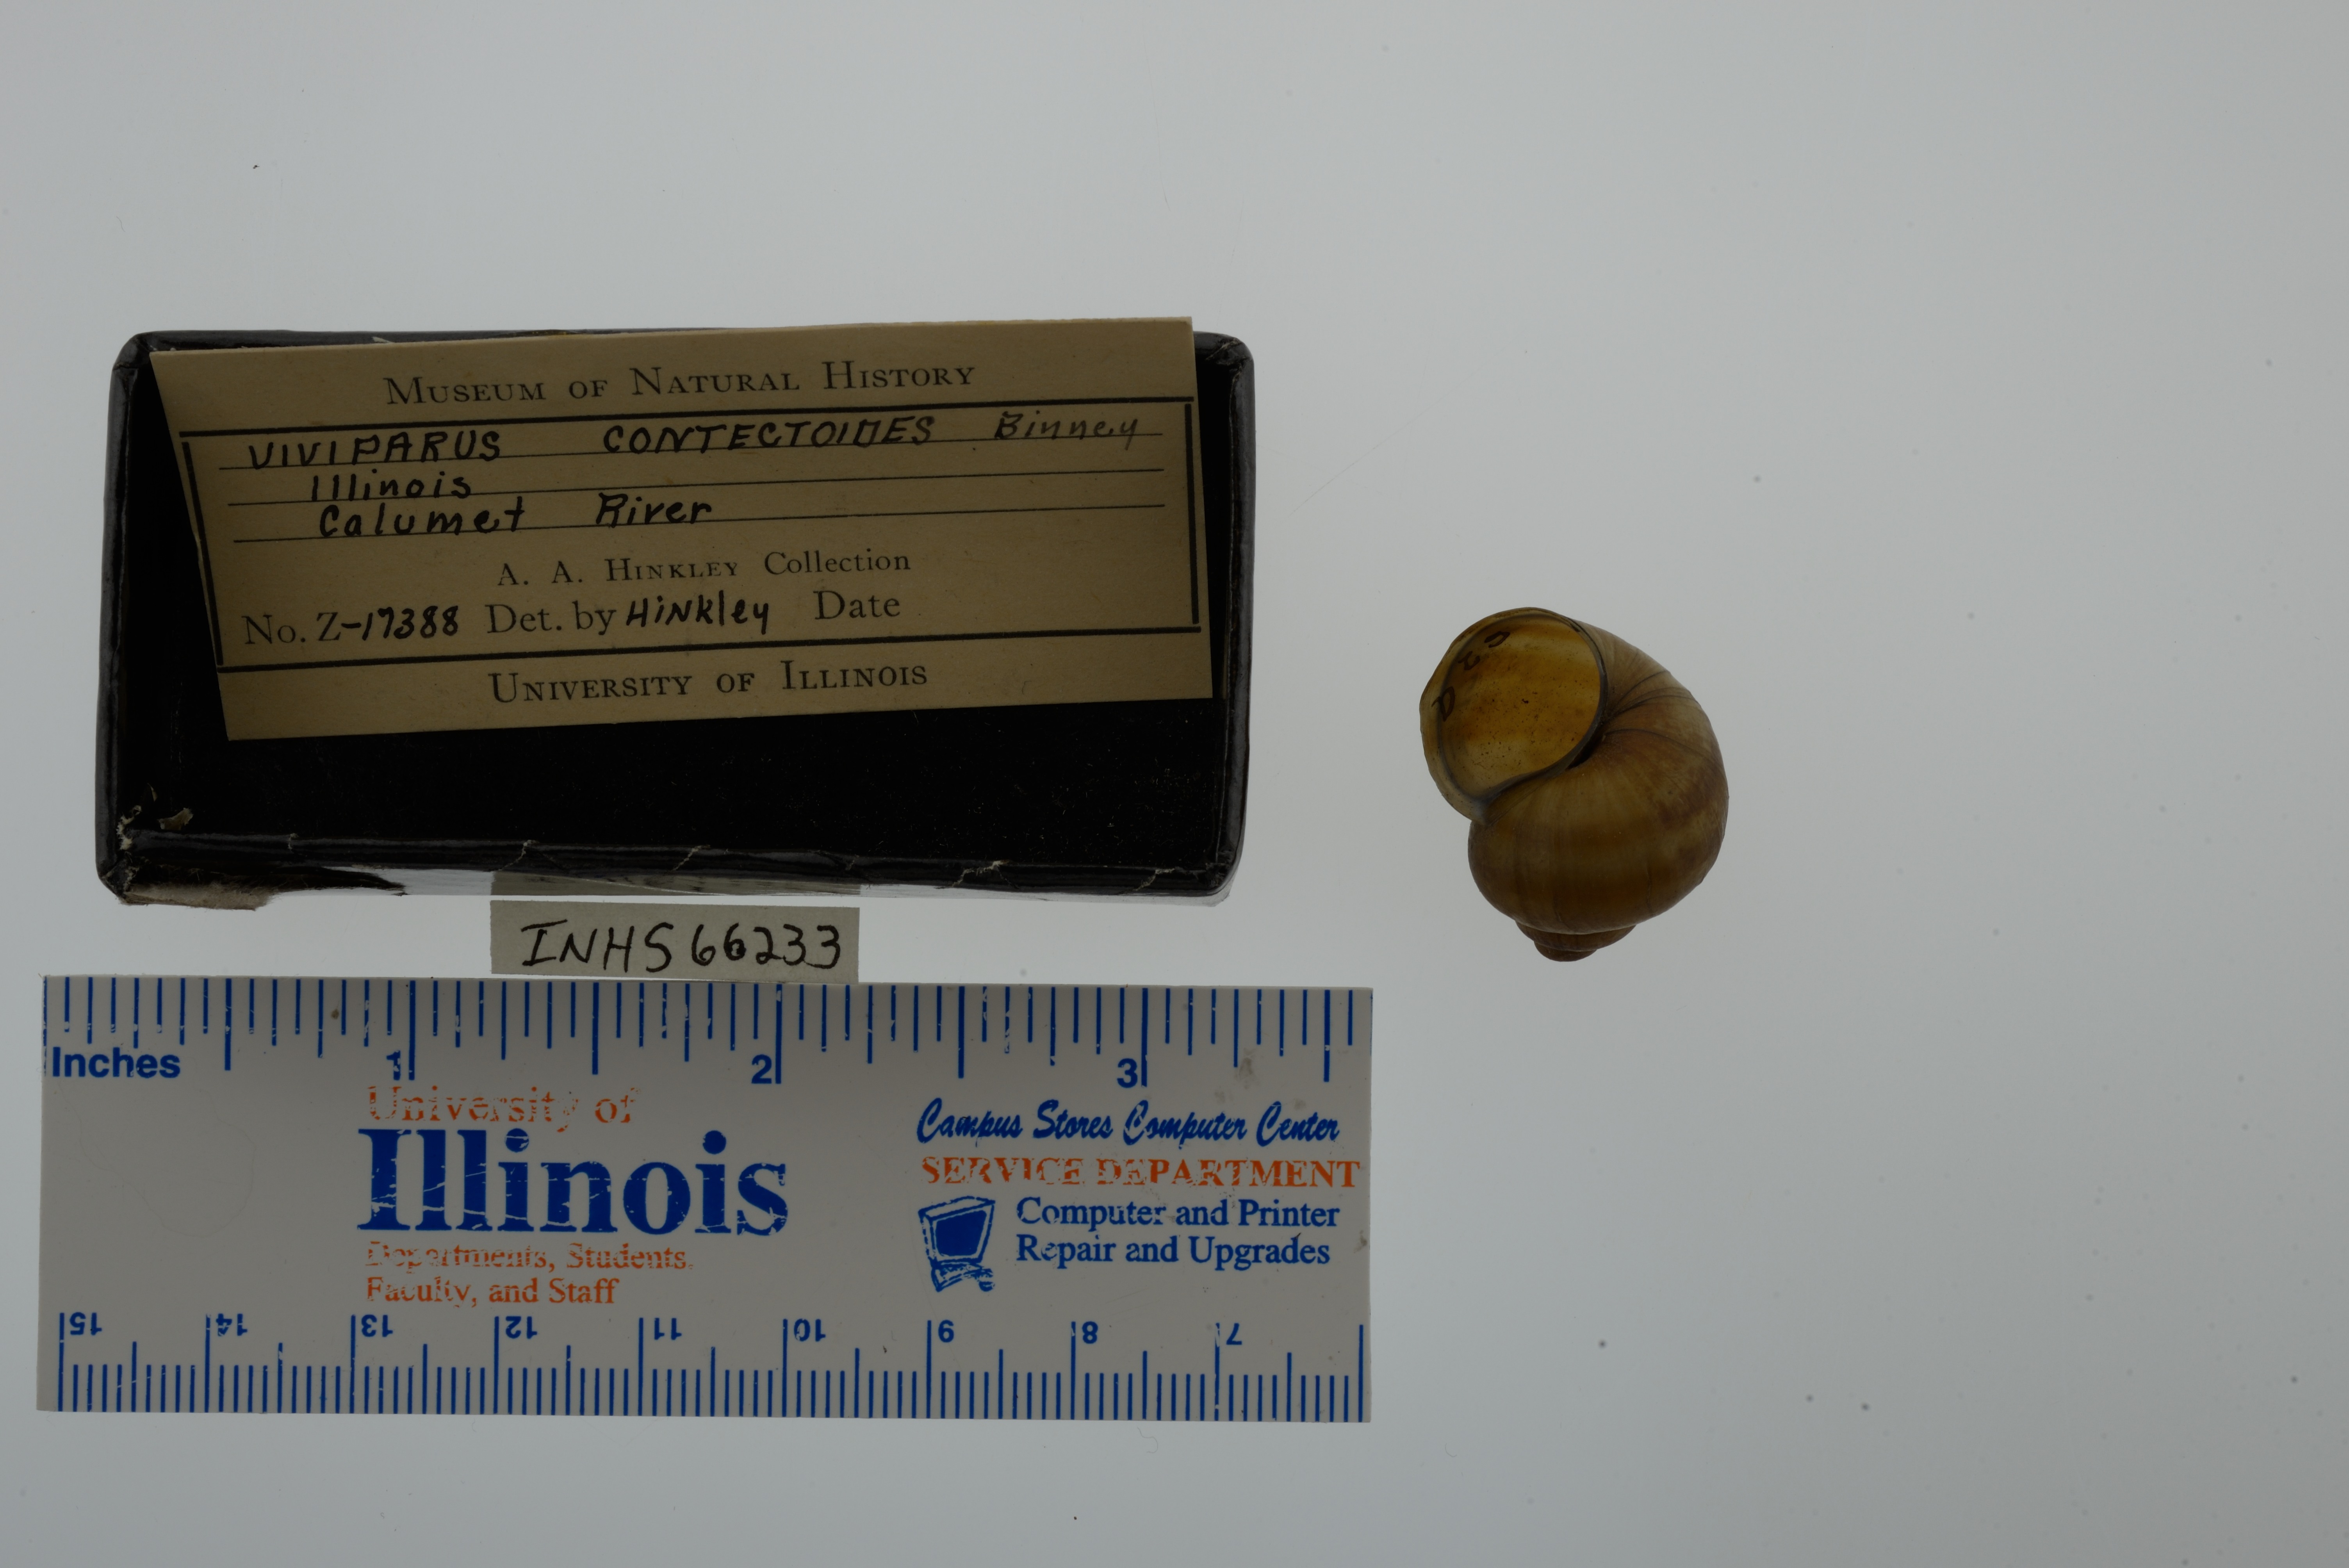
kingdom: Animalia
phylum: Mollusca
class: Gastropoda
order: Architaenioglossa
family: Viviparidae
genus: Callinina
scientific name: Callinina georgiana
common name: Banded mystery snail
